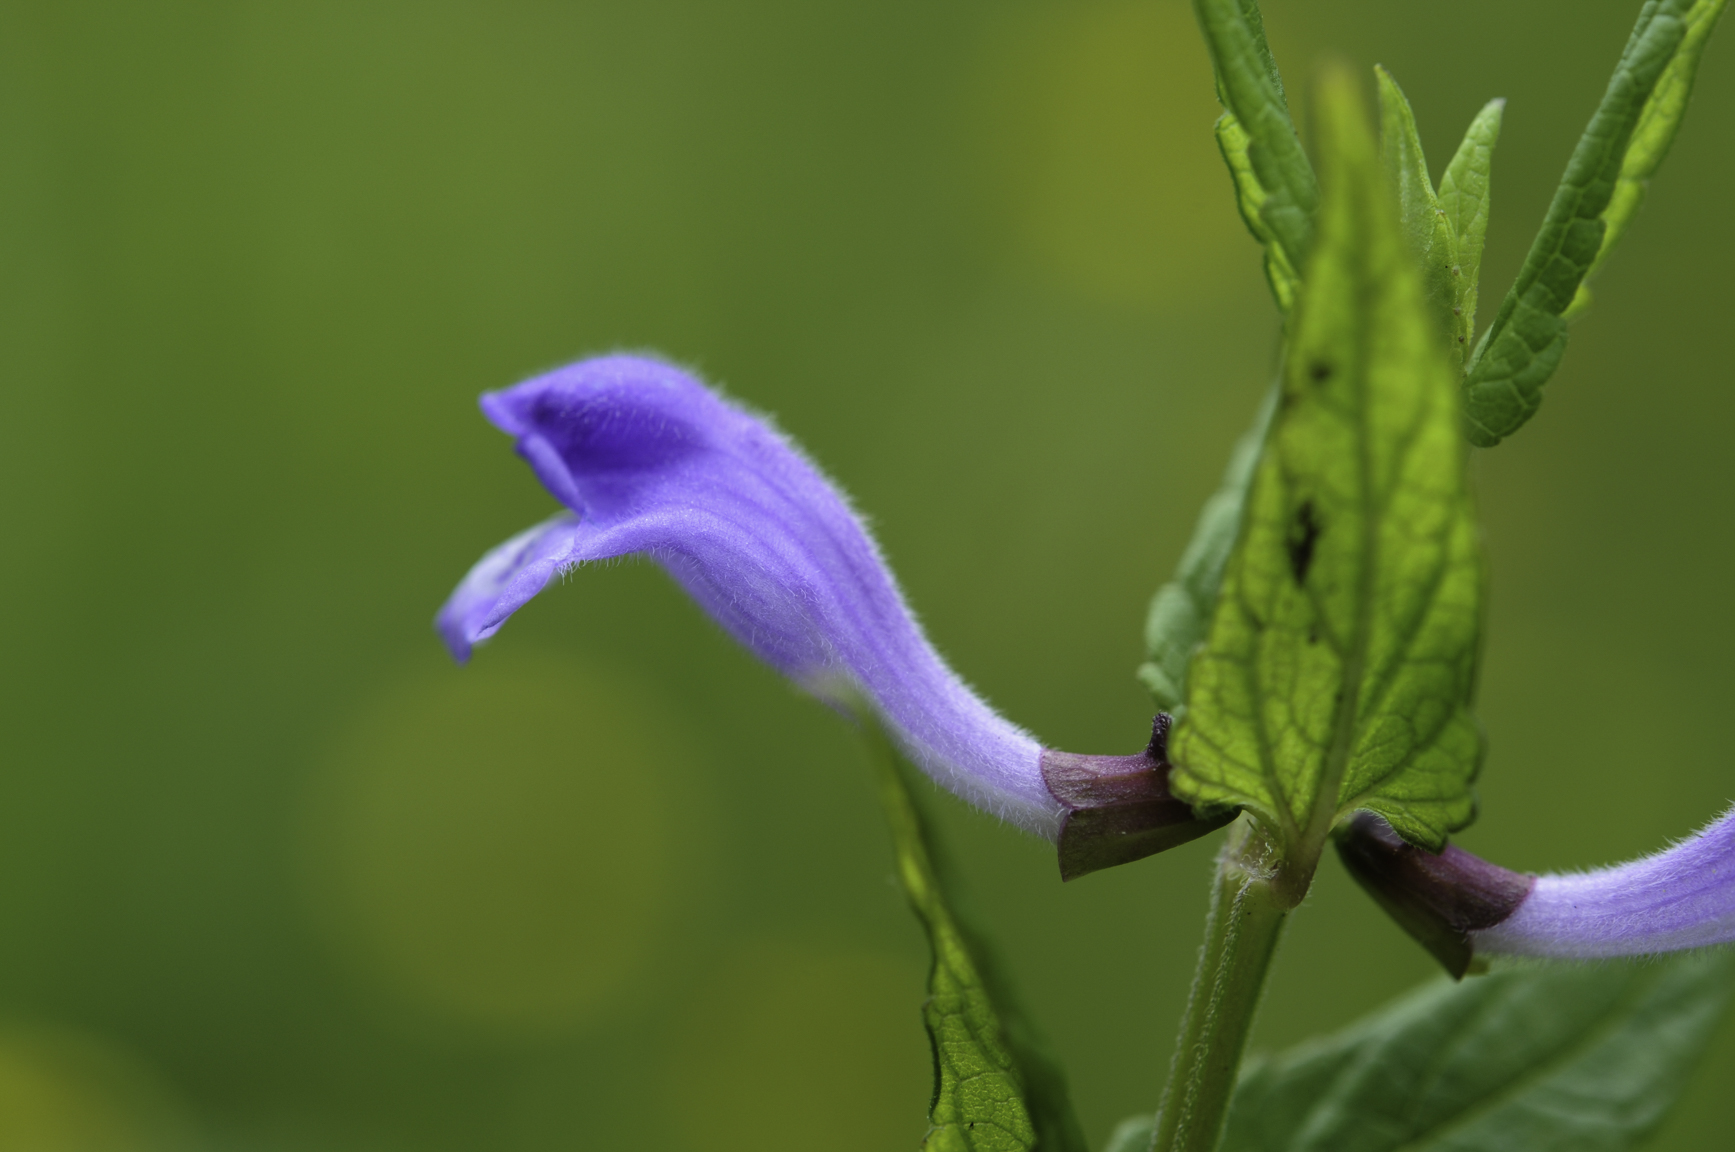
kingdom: Plantae
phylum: Tracheophyta
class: Magnoliopsida
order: Lamiales
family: Lamiaceae
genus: Scutellaria
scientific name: Scutellaria galericulata
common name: Skullcap
